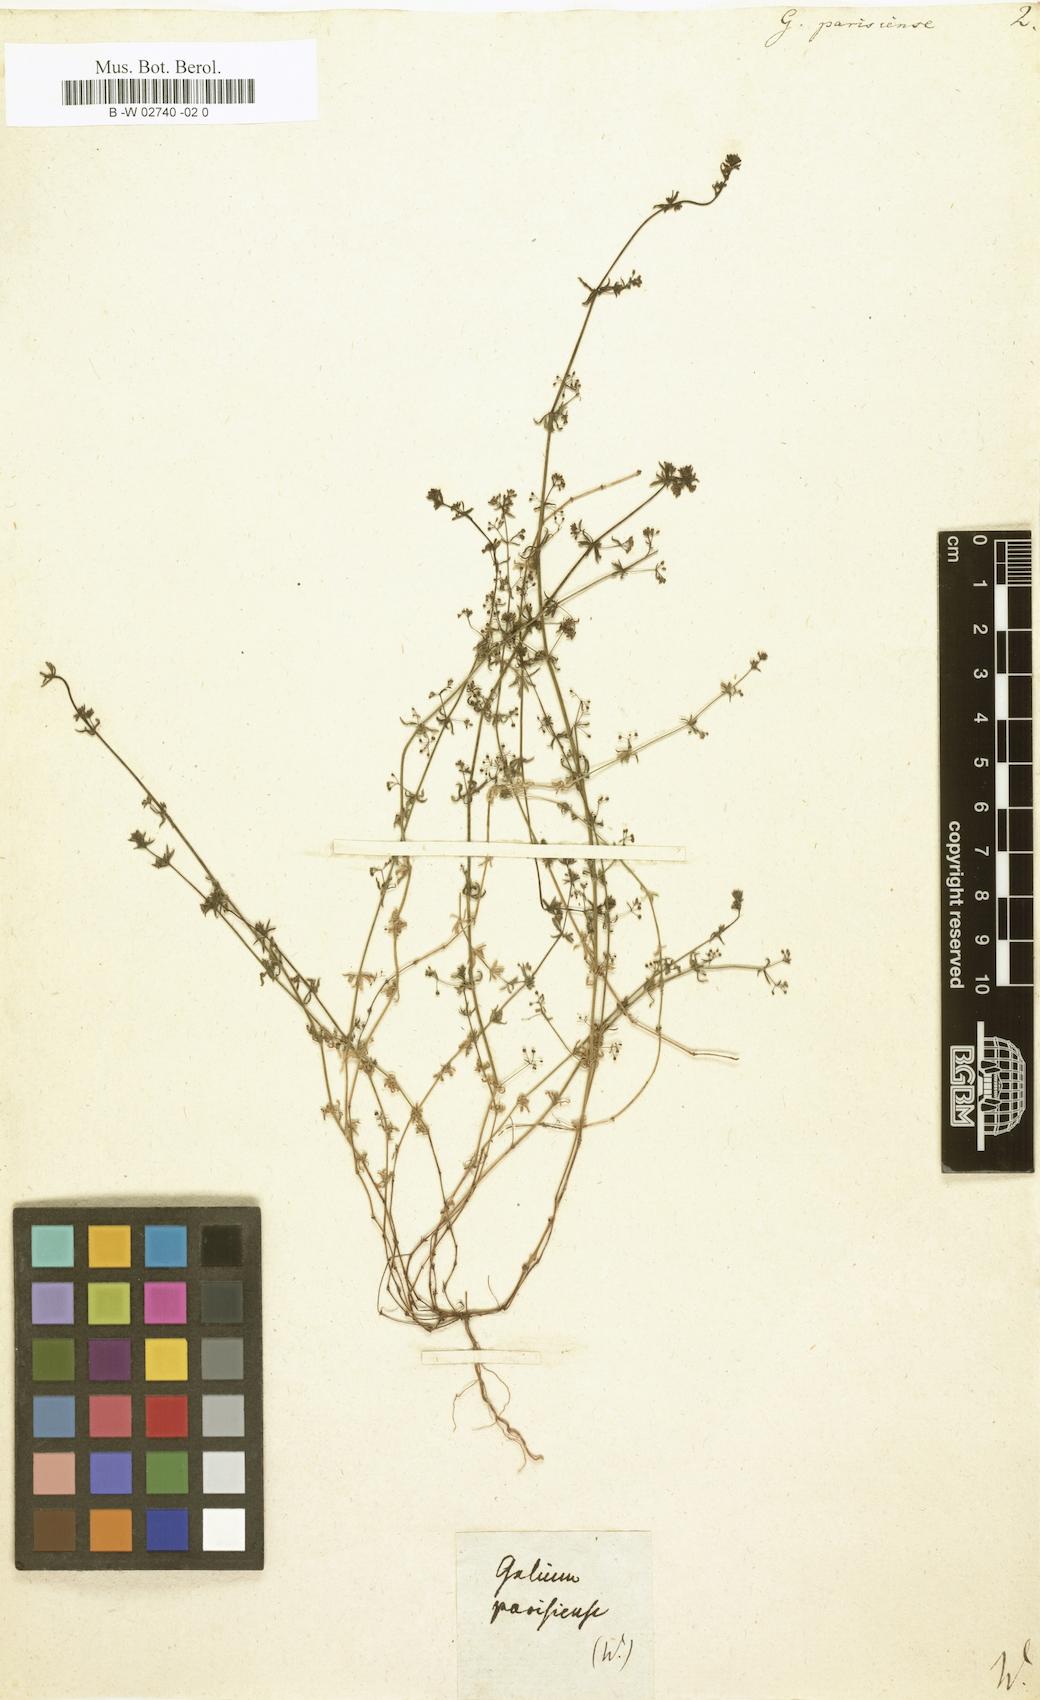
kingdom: Plantae
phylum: Tracheophyta
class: Magnoliopsida
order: Gentianales
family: Rubiaceae
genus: Galium
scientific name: Galium parisiense
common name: Wall bedstraw
